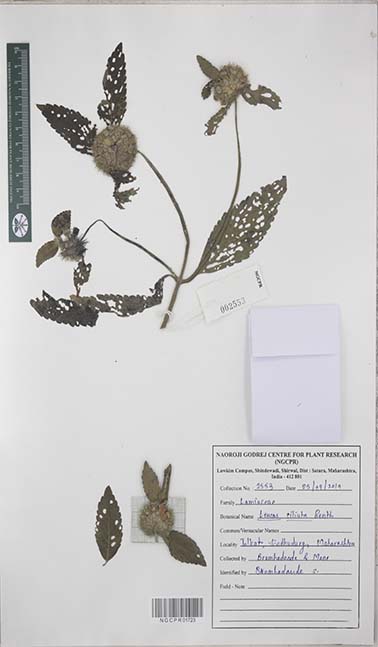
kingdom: Plantae
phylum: Tracheophyta
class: Magnoliopsida
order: Lamiales
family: Lamiaceae
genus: Leucas
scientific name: Leucas ciliata
